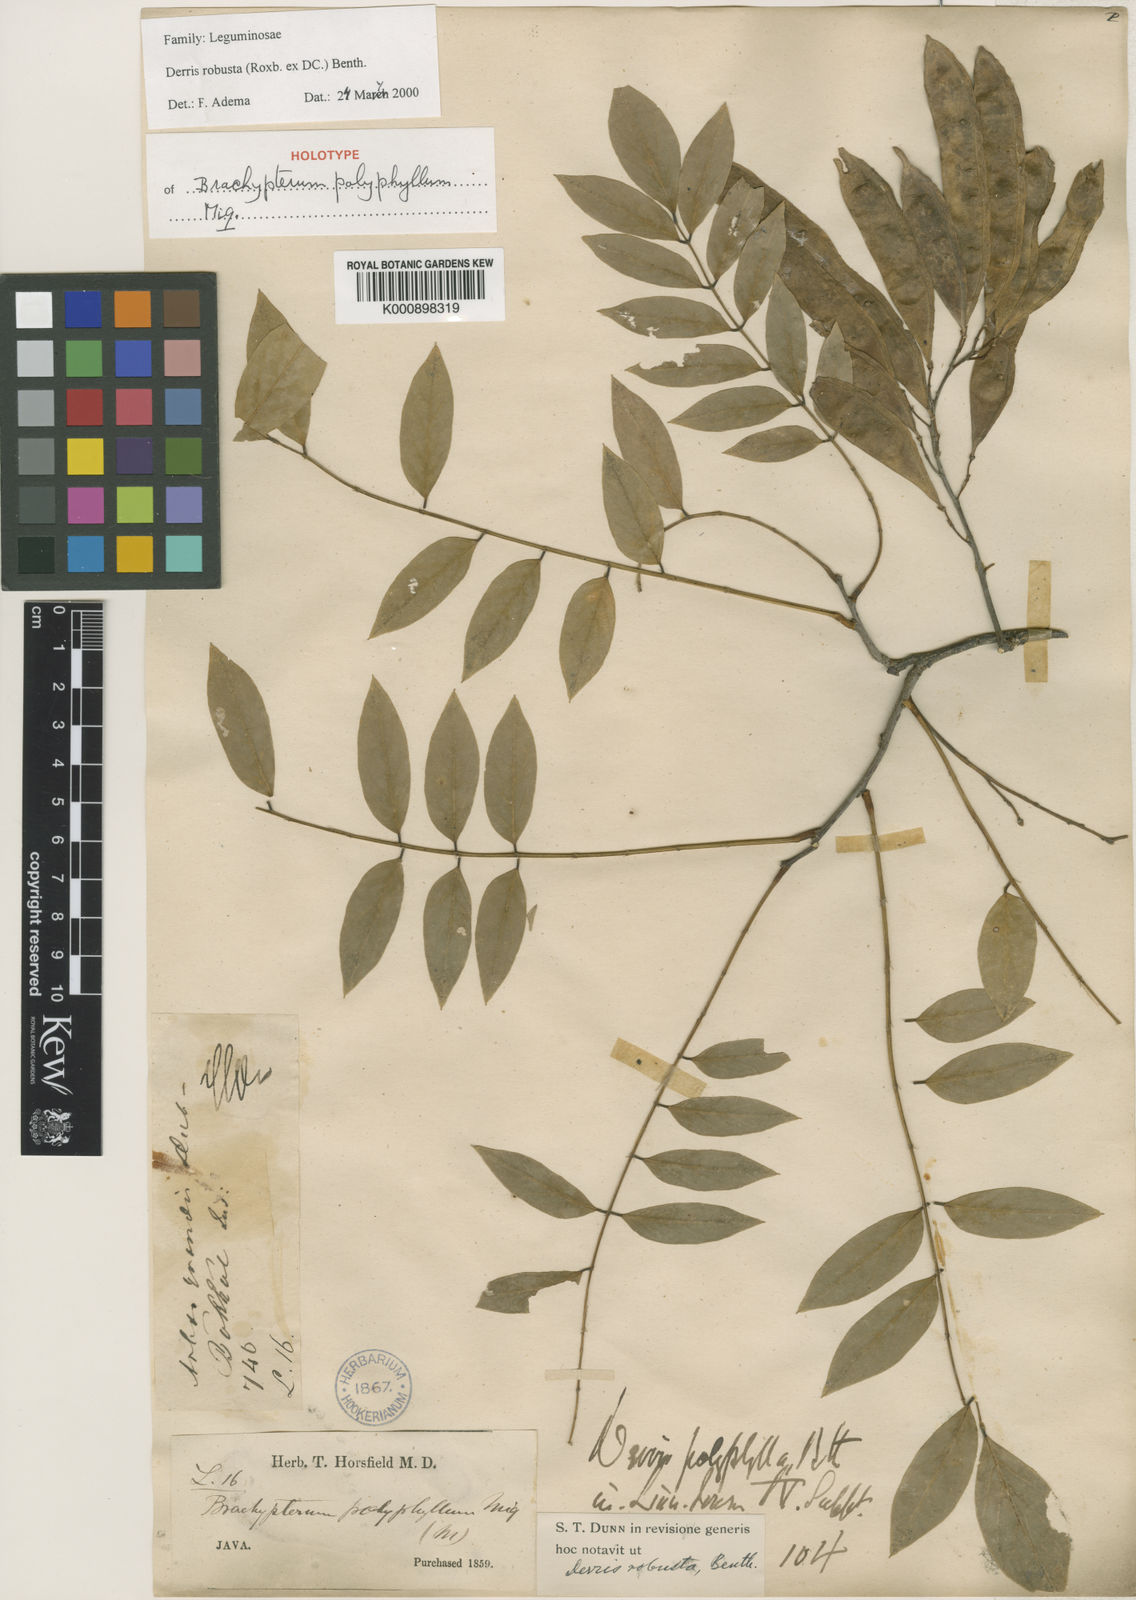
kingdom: Plantae
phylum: Tracheophyta
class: Magnoliopsida
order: Fabales
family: Fabaceae
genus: Brachypterum
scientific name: Brachypterum robustum
